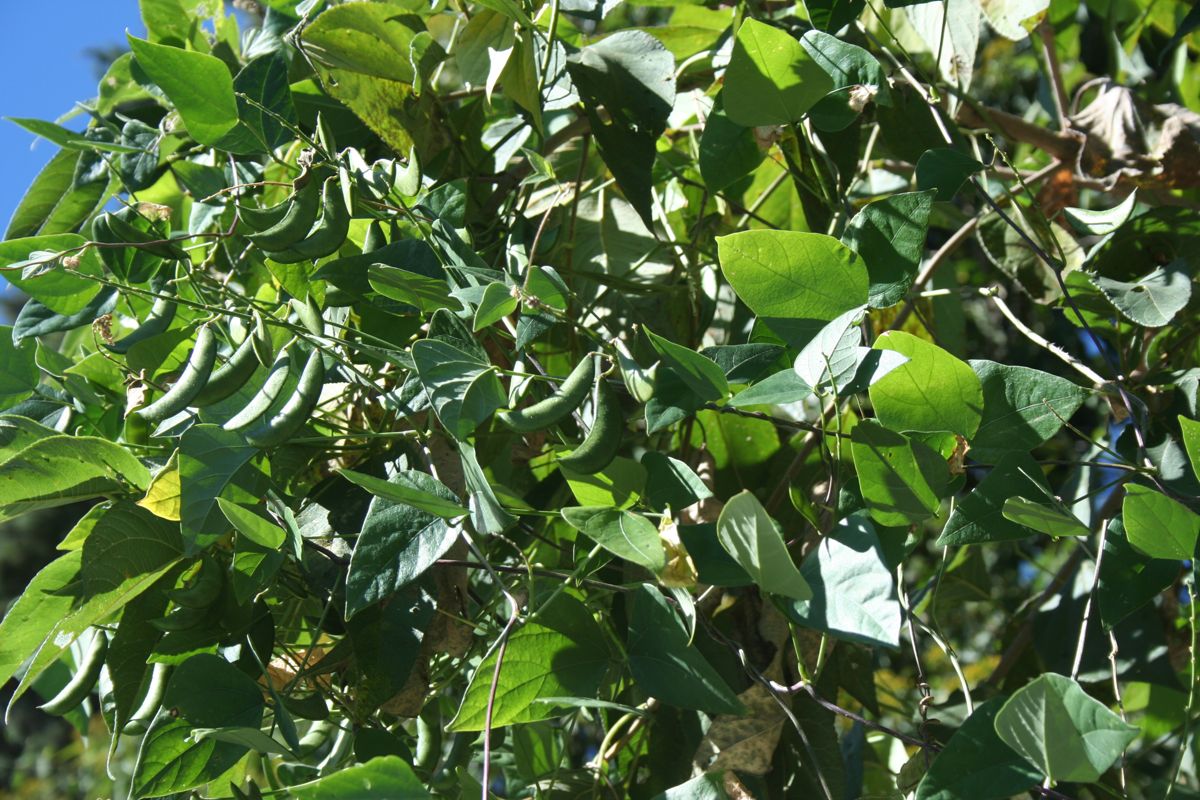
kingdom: Plantae
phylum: Tracheophyta
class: Magnoliopsida
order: Fabales
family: Fabaceae
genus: Phaseolus
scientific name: Phaseolus lunatus
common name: Sieva bean
